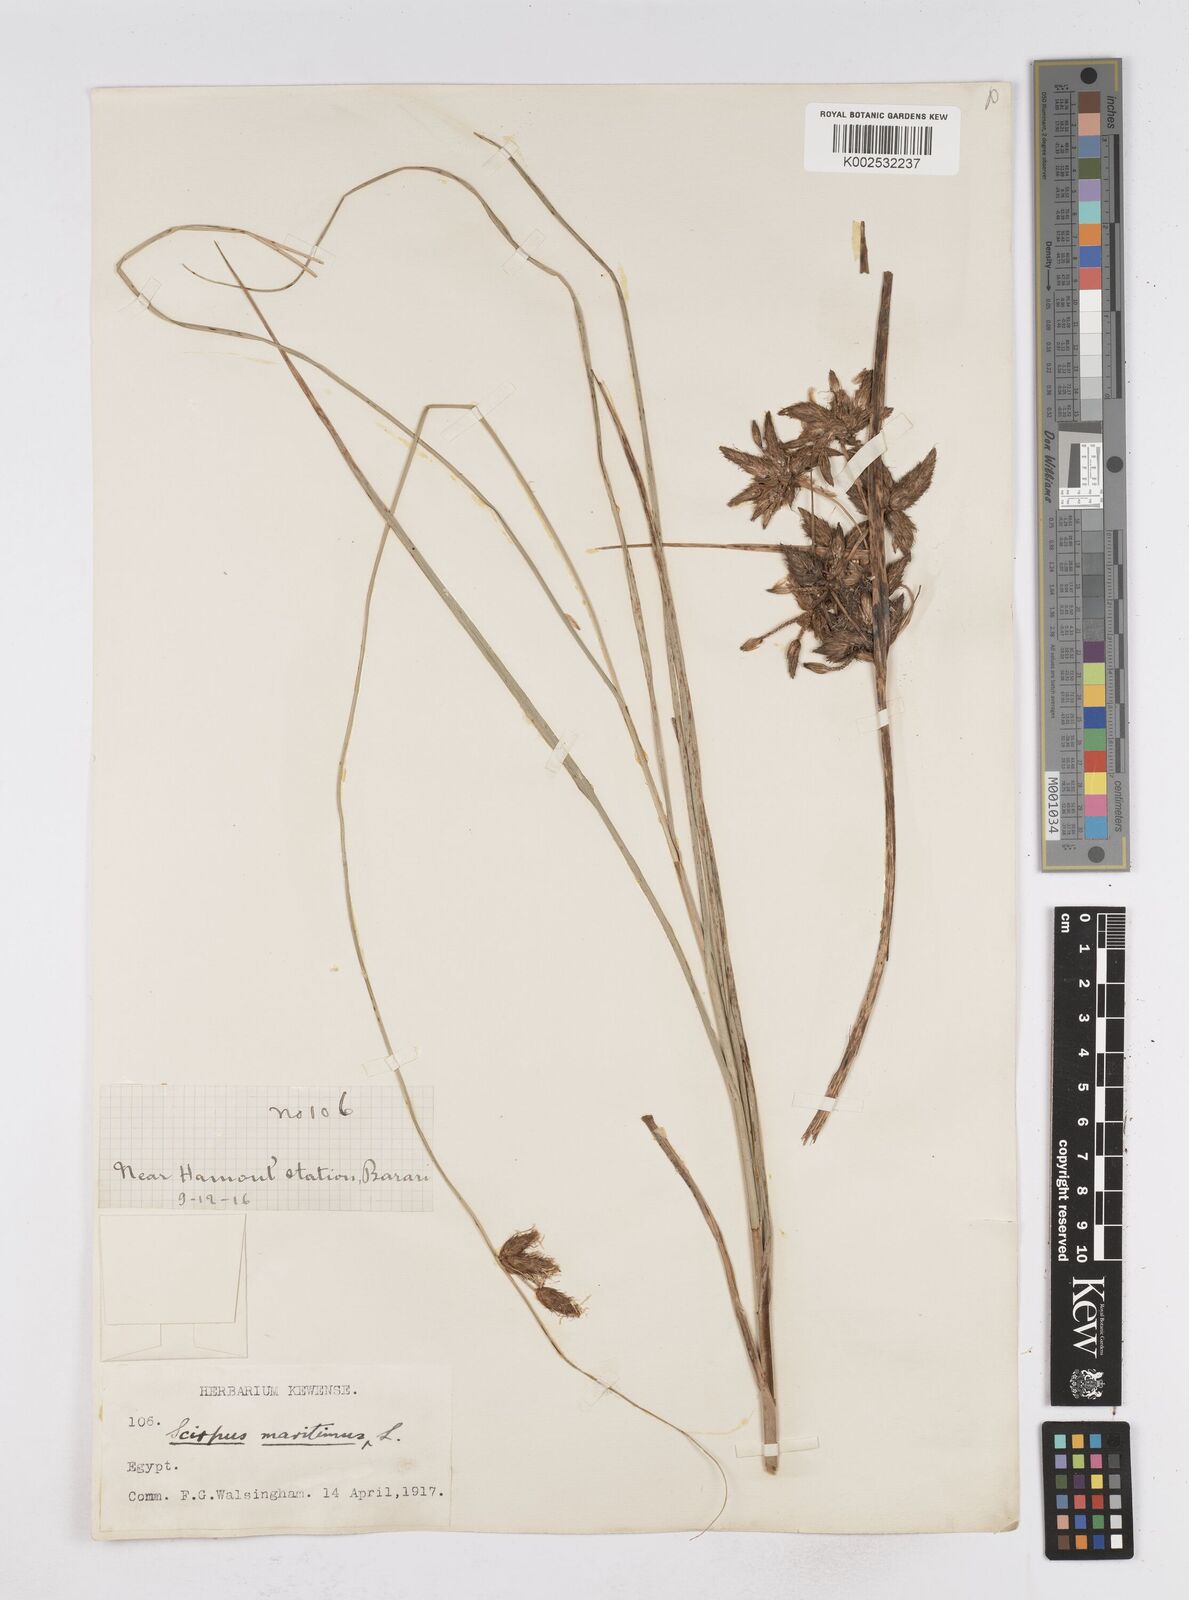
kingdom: Plantae
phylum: Tracheophyta
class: Liliopsida
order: Poales
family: Cyperaceae
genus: Bolboschoenus
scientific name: Bolboschoenus maritimus
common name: Sea club-rush
